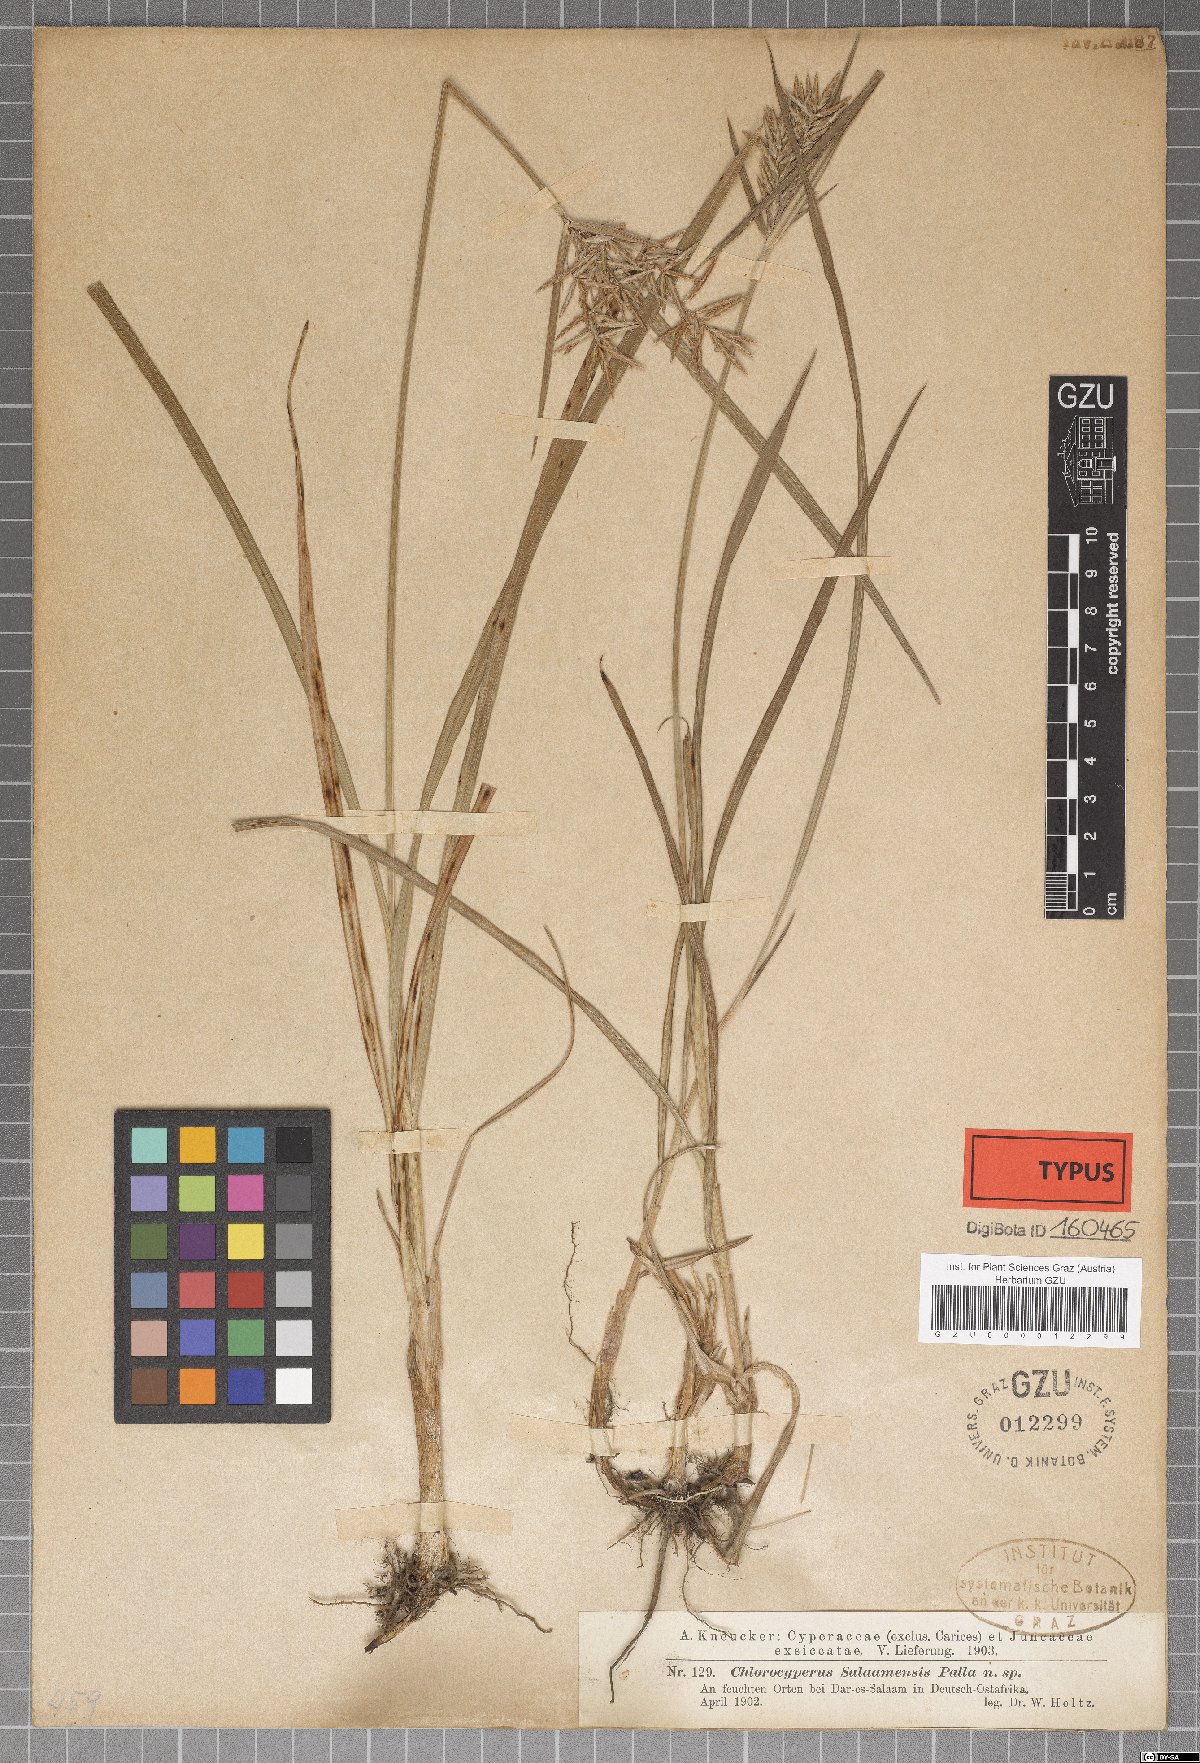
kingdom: Plantae
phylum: Tracheophyta
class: Liliopsida
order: Poales
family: Cyperaceae
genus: Cyperus
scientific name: Cyperus tuberosus
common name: Nut grass
